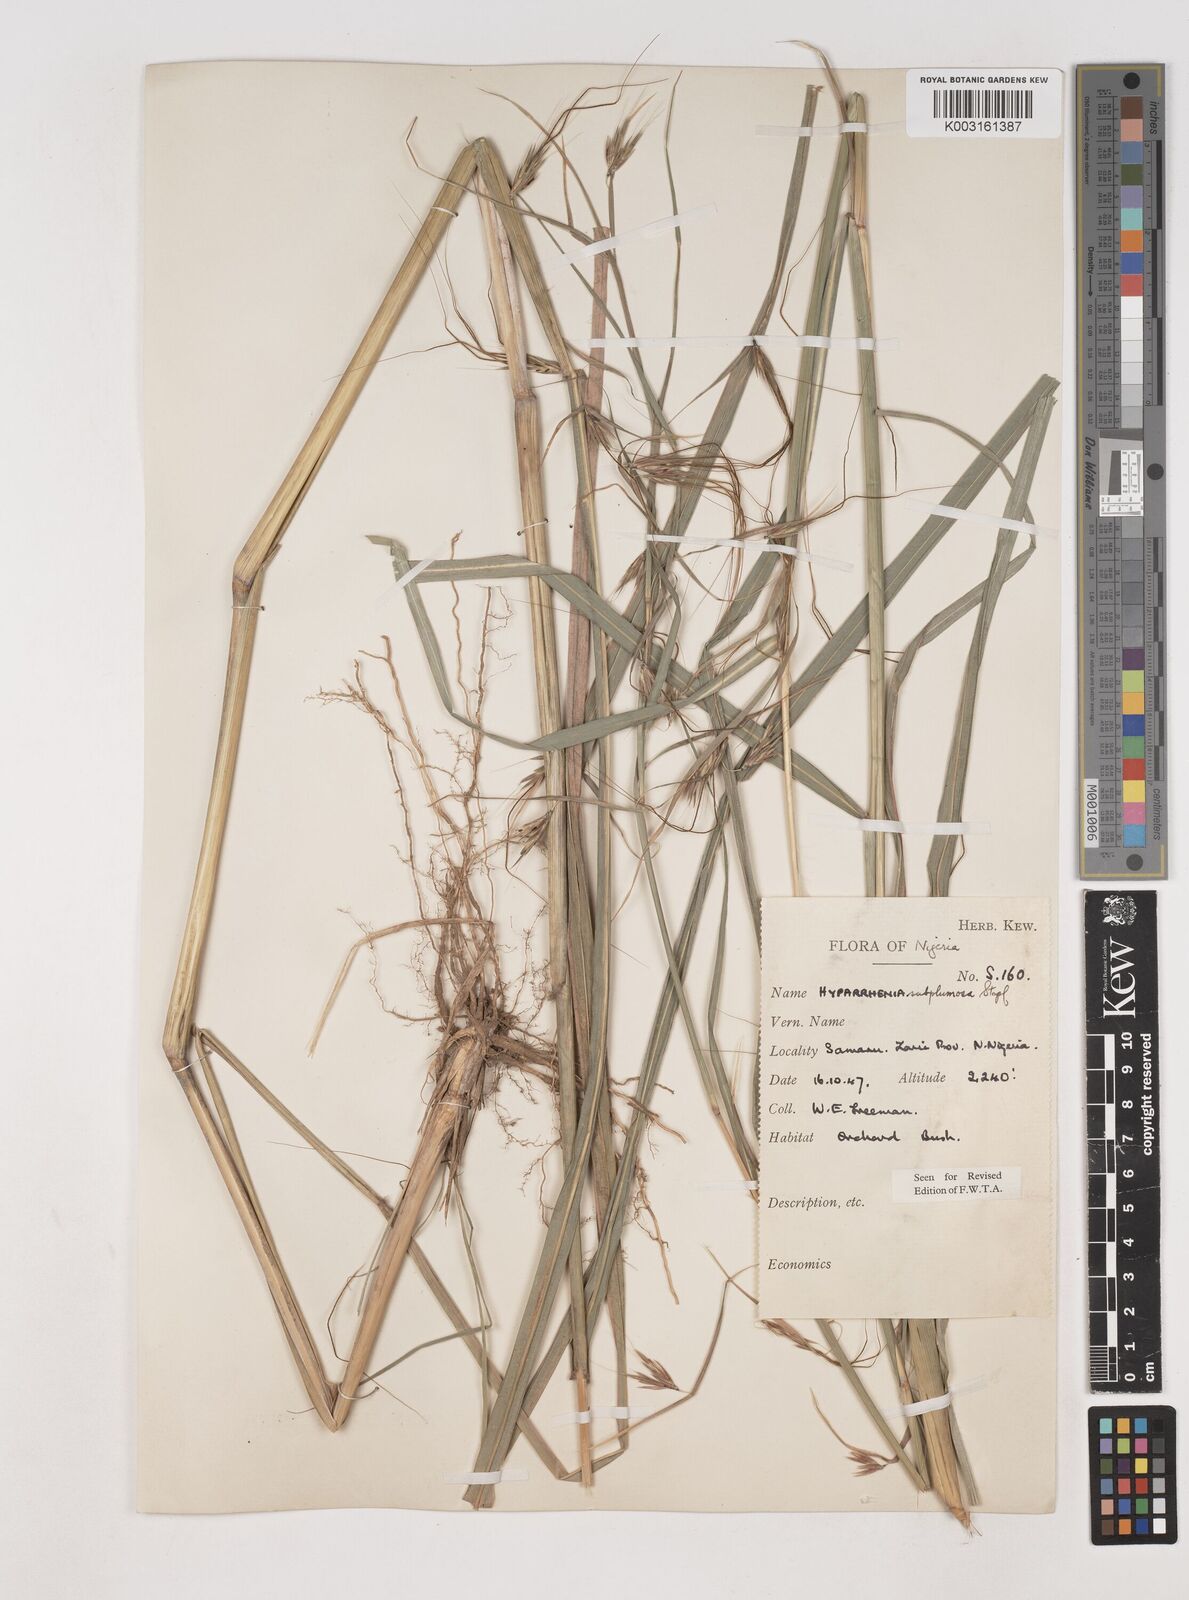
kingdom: Plantae
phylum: Tracheophyta
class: Liliopsida
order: Poales
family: Poaceae
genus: Hyparrhenia
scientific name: Hyparrhenia subplumosa
